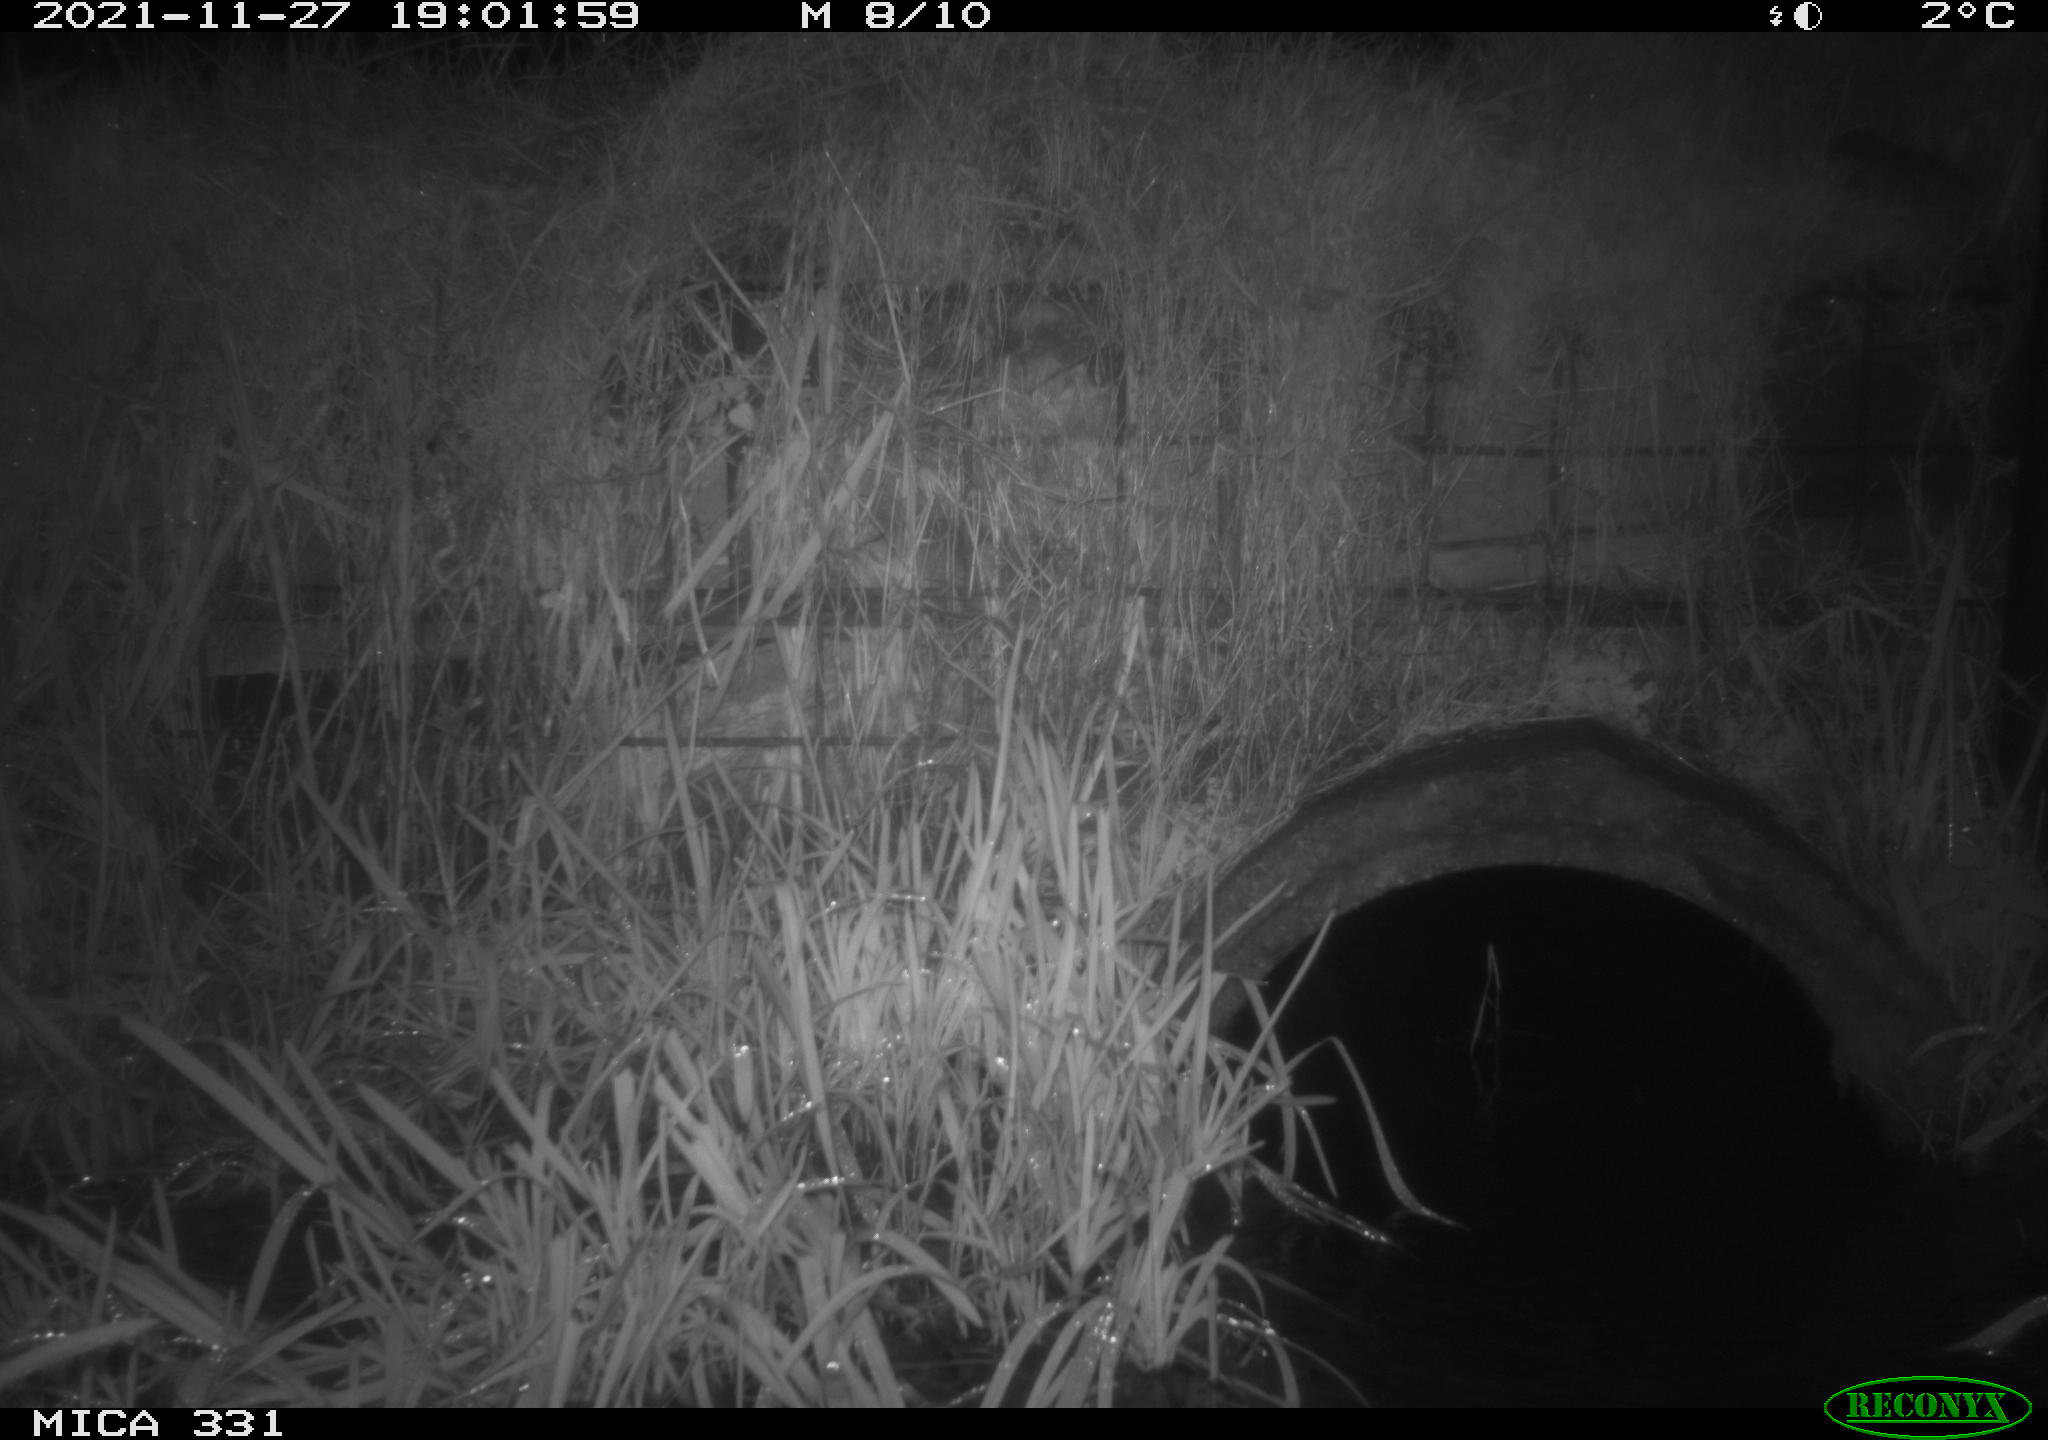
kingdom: Animalia
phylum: Chordata
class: Mammalia
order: Rodentia
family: Muridae
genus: Rattus
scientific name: Rattus norvegicus
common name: Brown rat
